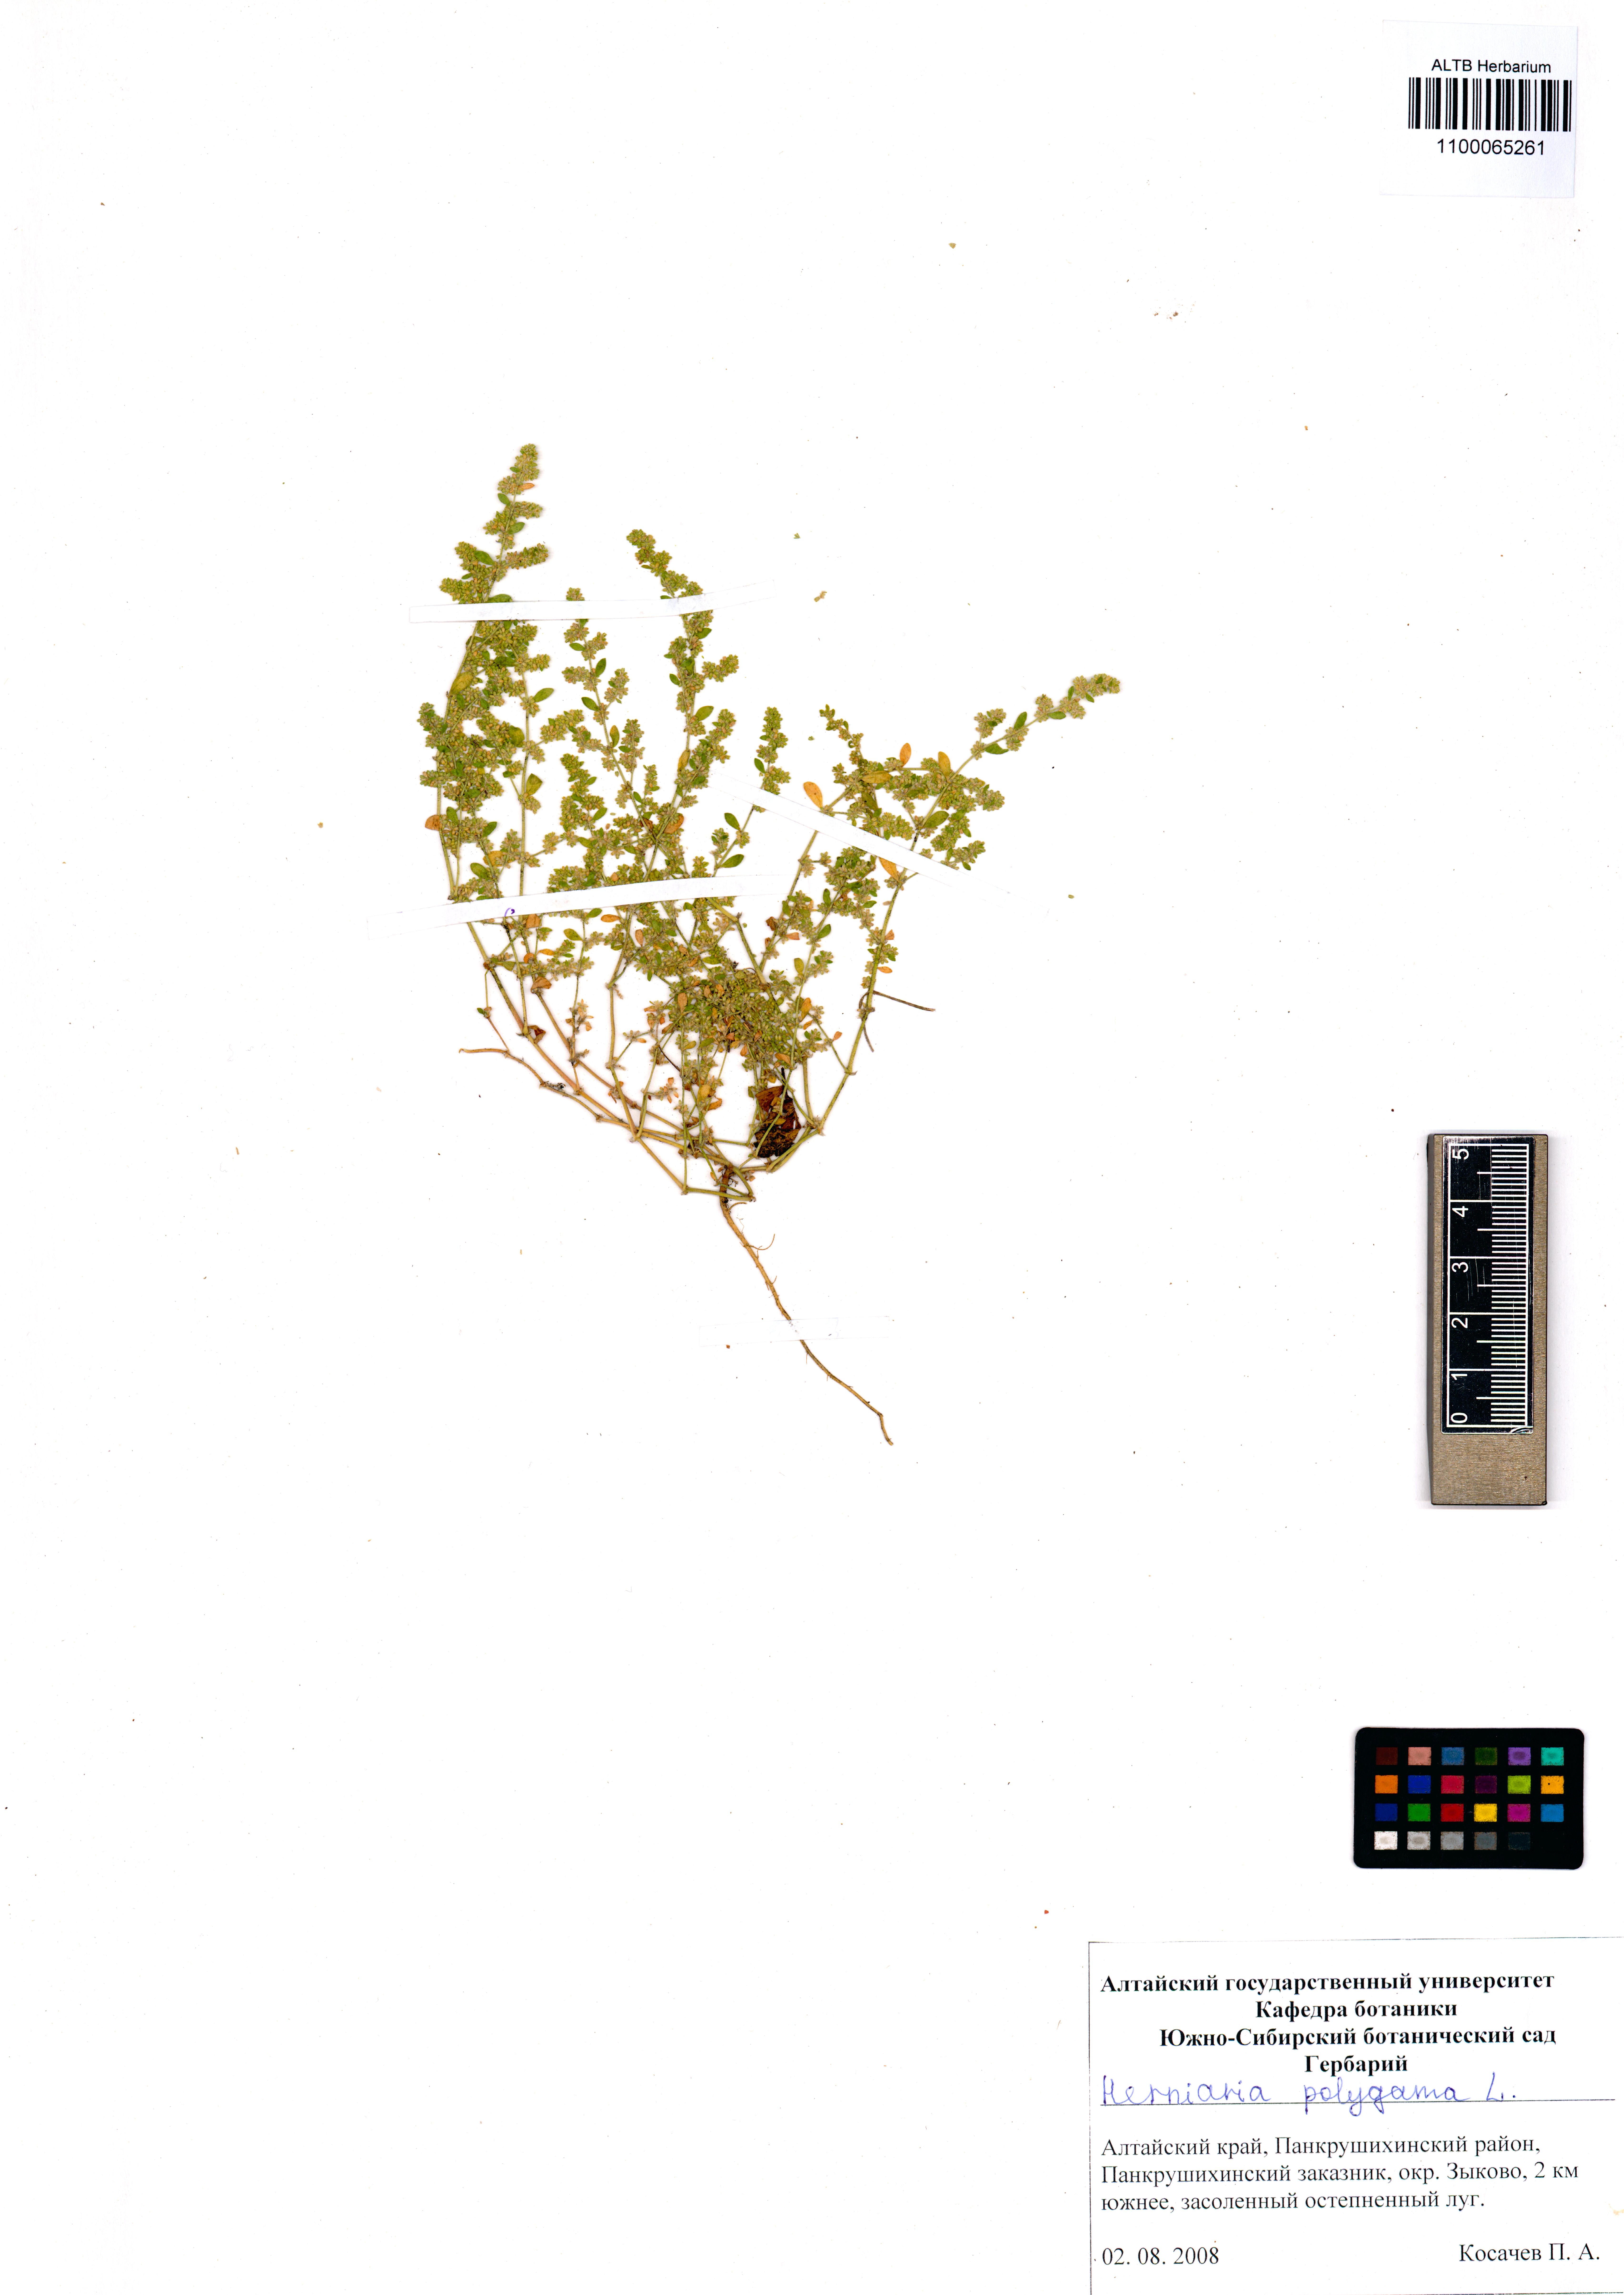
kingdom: Plantae
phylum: Tracheophyta
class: Magnoliopsida
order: Caryophyllales
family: Caryophyllaceae
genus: Herniaria
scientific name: Herniaria polygama
